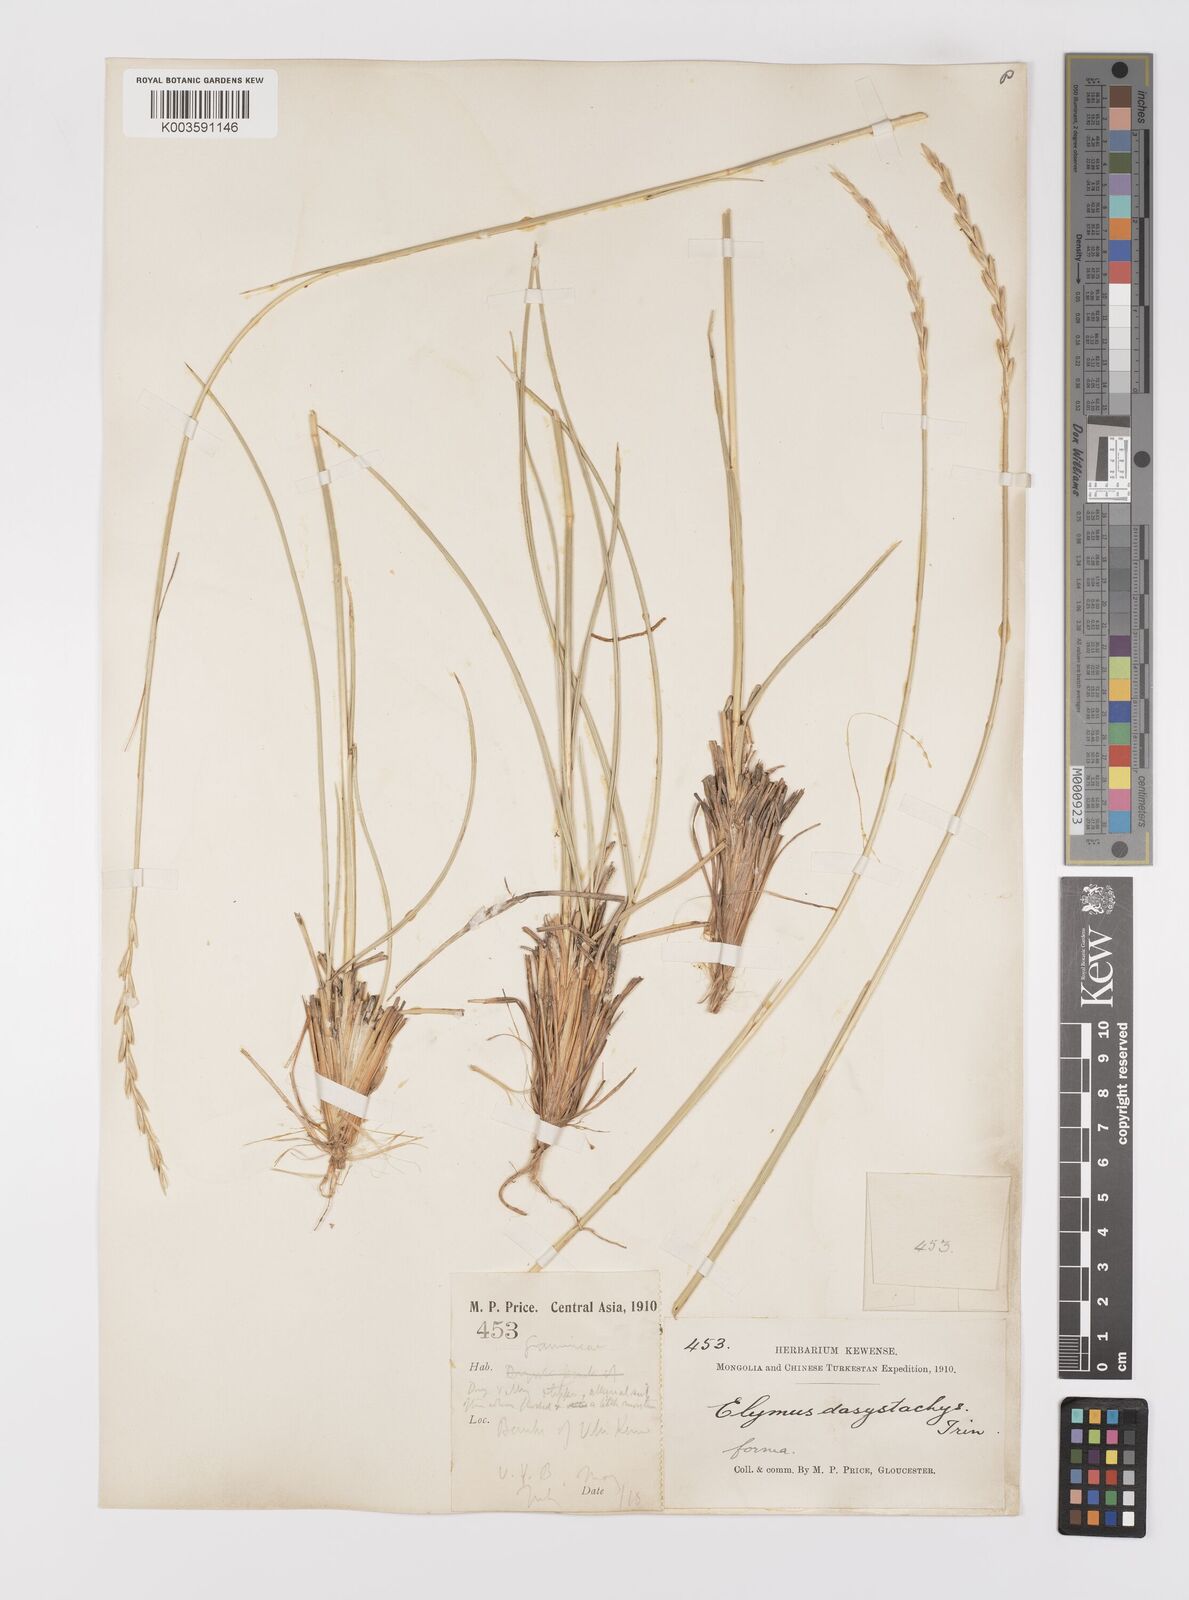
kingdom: Plantae
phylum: Tracheophyta
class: Liliopsida
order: Poales
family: Poaceae
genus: Leymus
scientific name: Leymus secalinus
